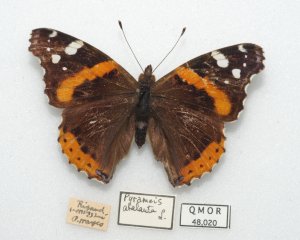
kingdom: Animalia
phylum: Arthropoda
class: Insecta
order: Lepidoptera
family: Nymphalidae
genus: Vanessa
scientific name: Vanessa atalanta
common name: Red Admiral
